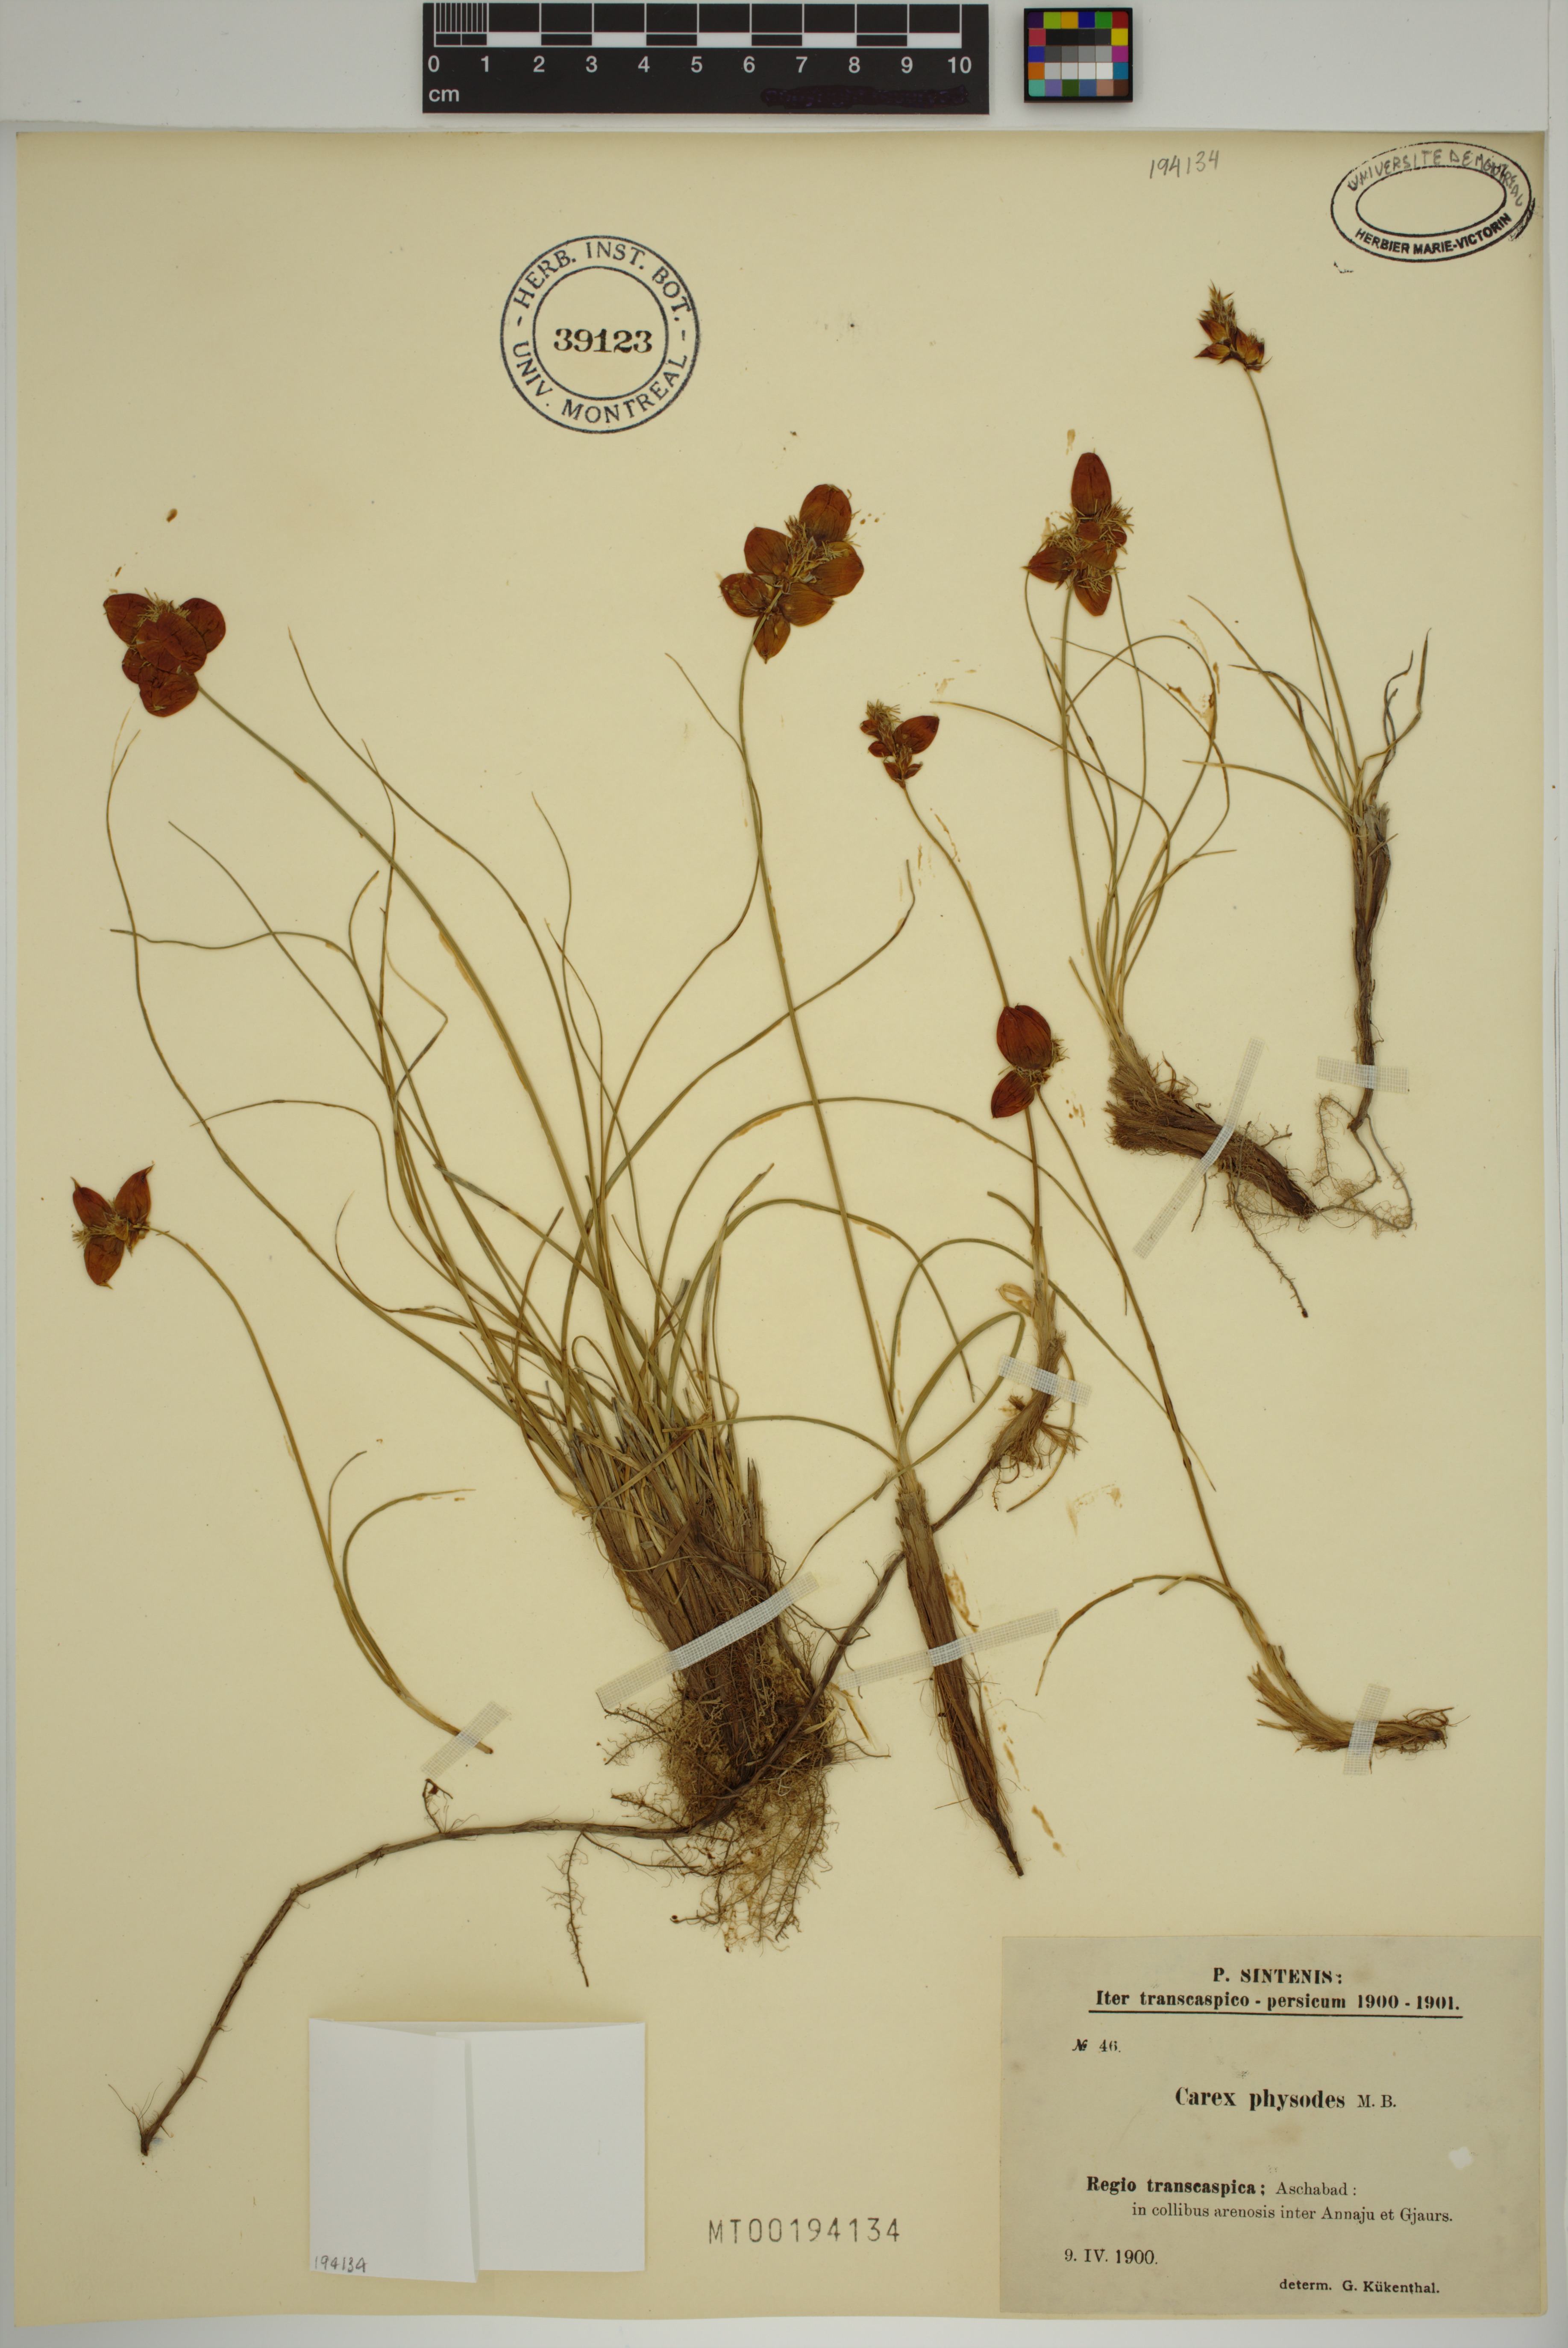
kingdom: Plantae
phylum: Tracheophyta
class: Liliopsida
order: Poales
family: Cyperaceae
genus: Carex
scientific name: Carex physodes
